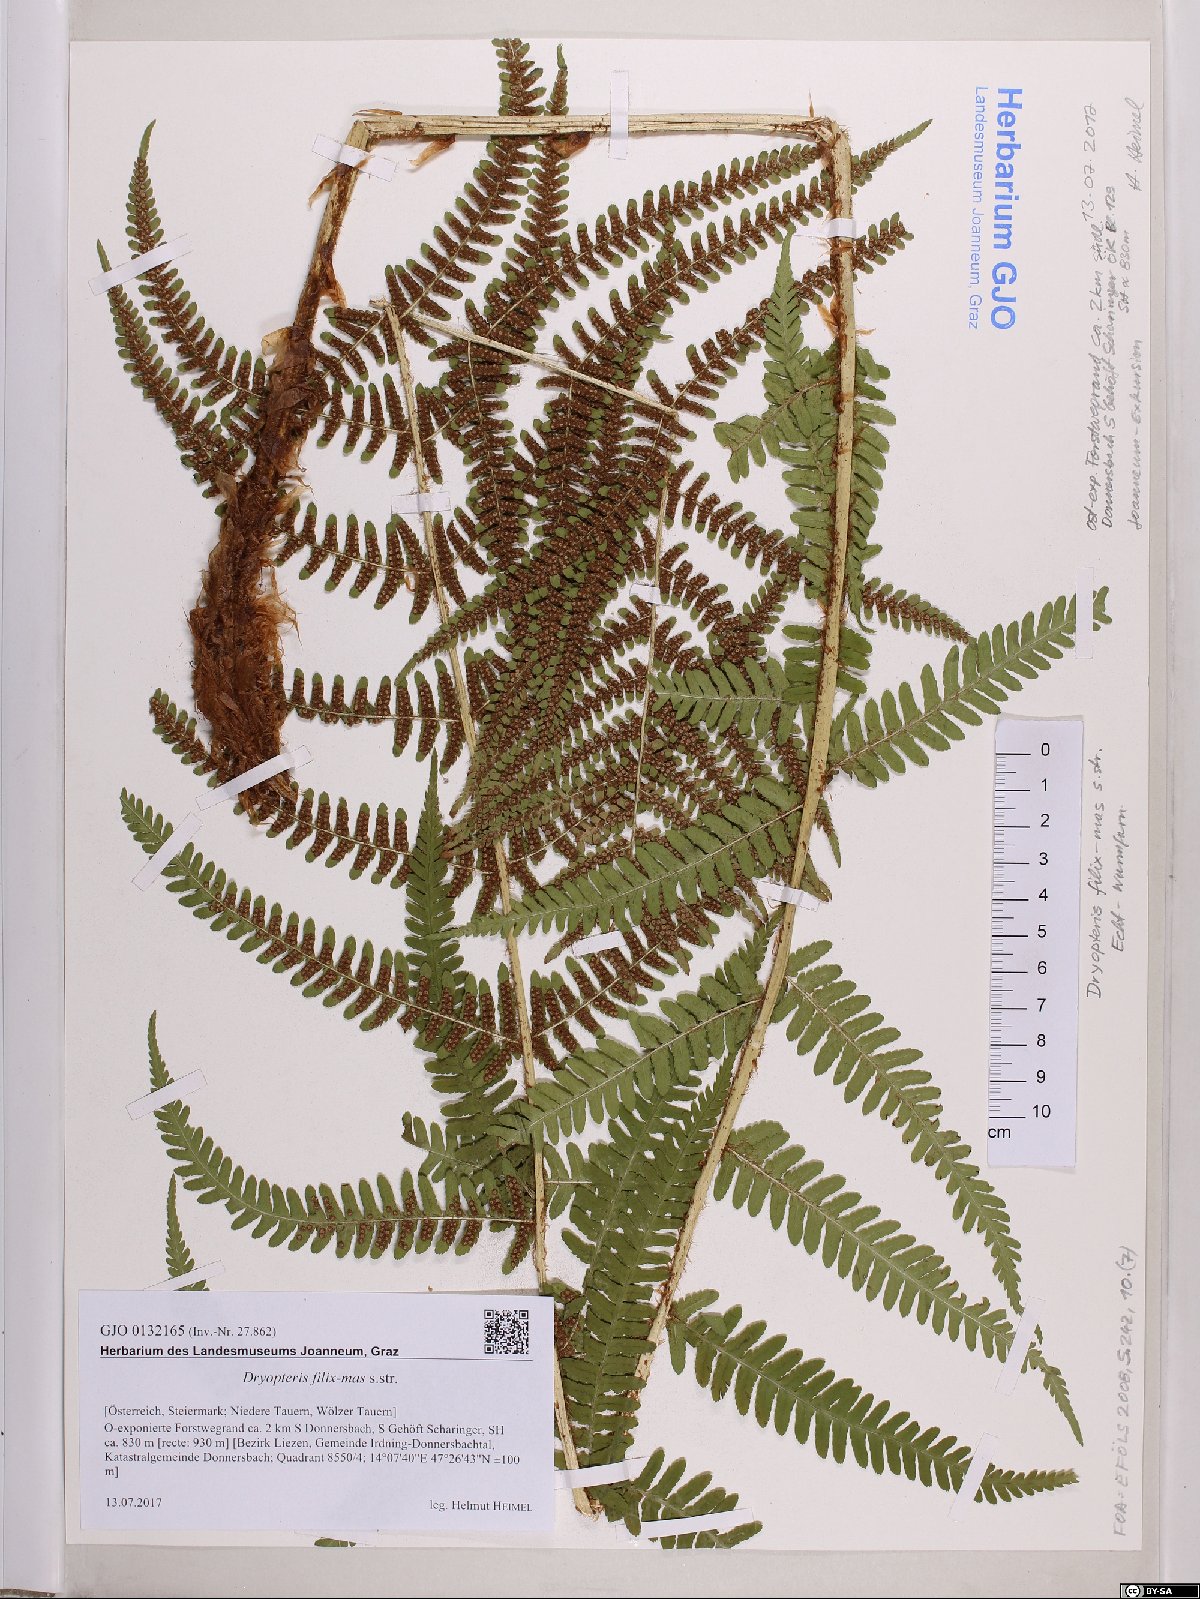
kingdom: Plantae
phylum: Tracheophyta
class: Polypodiopsida
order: Polypodiales
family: Dryopteridaceae
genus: Dryopteris
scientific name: Dryopteris filix-mas
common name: Male fern
